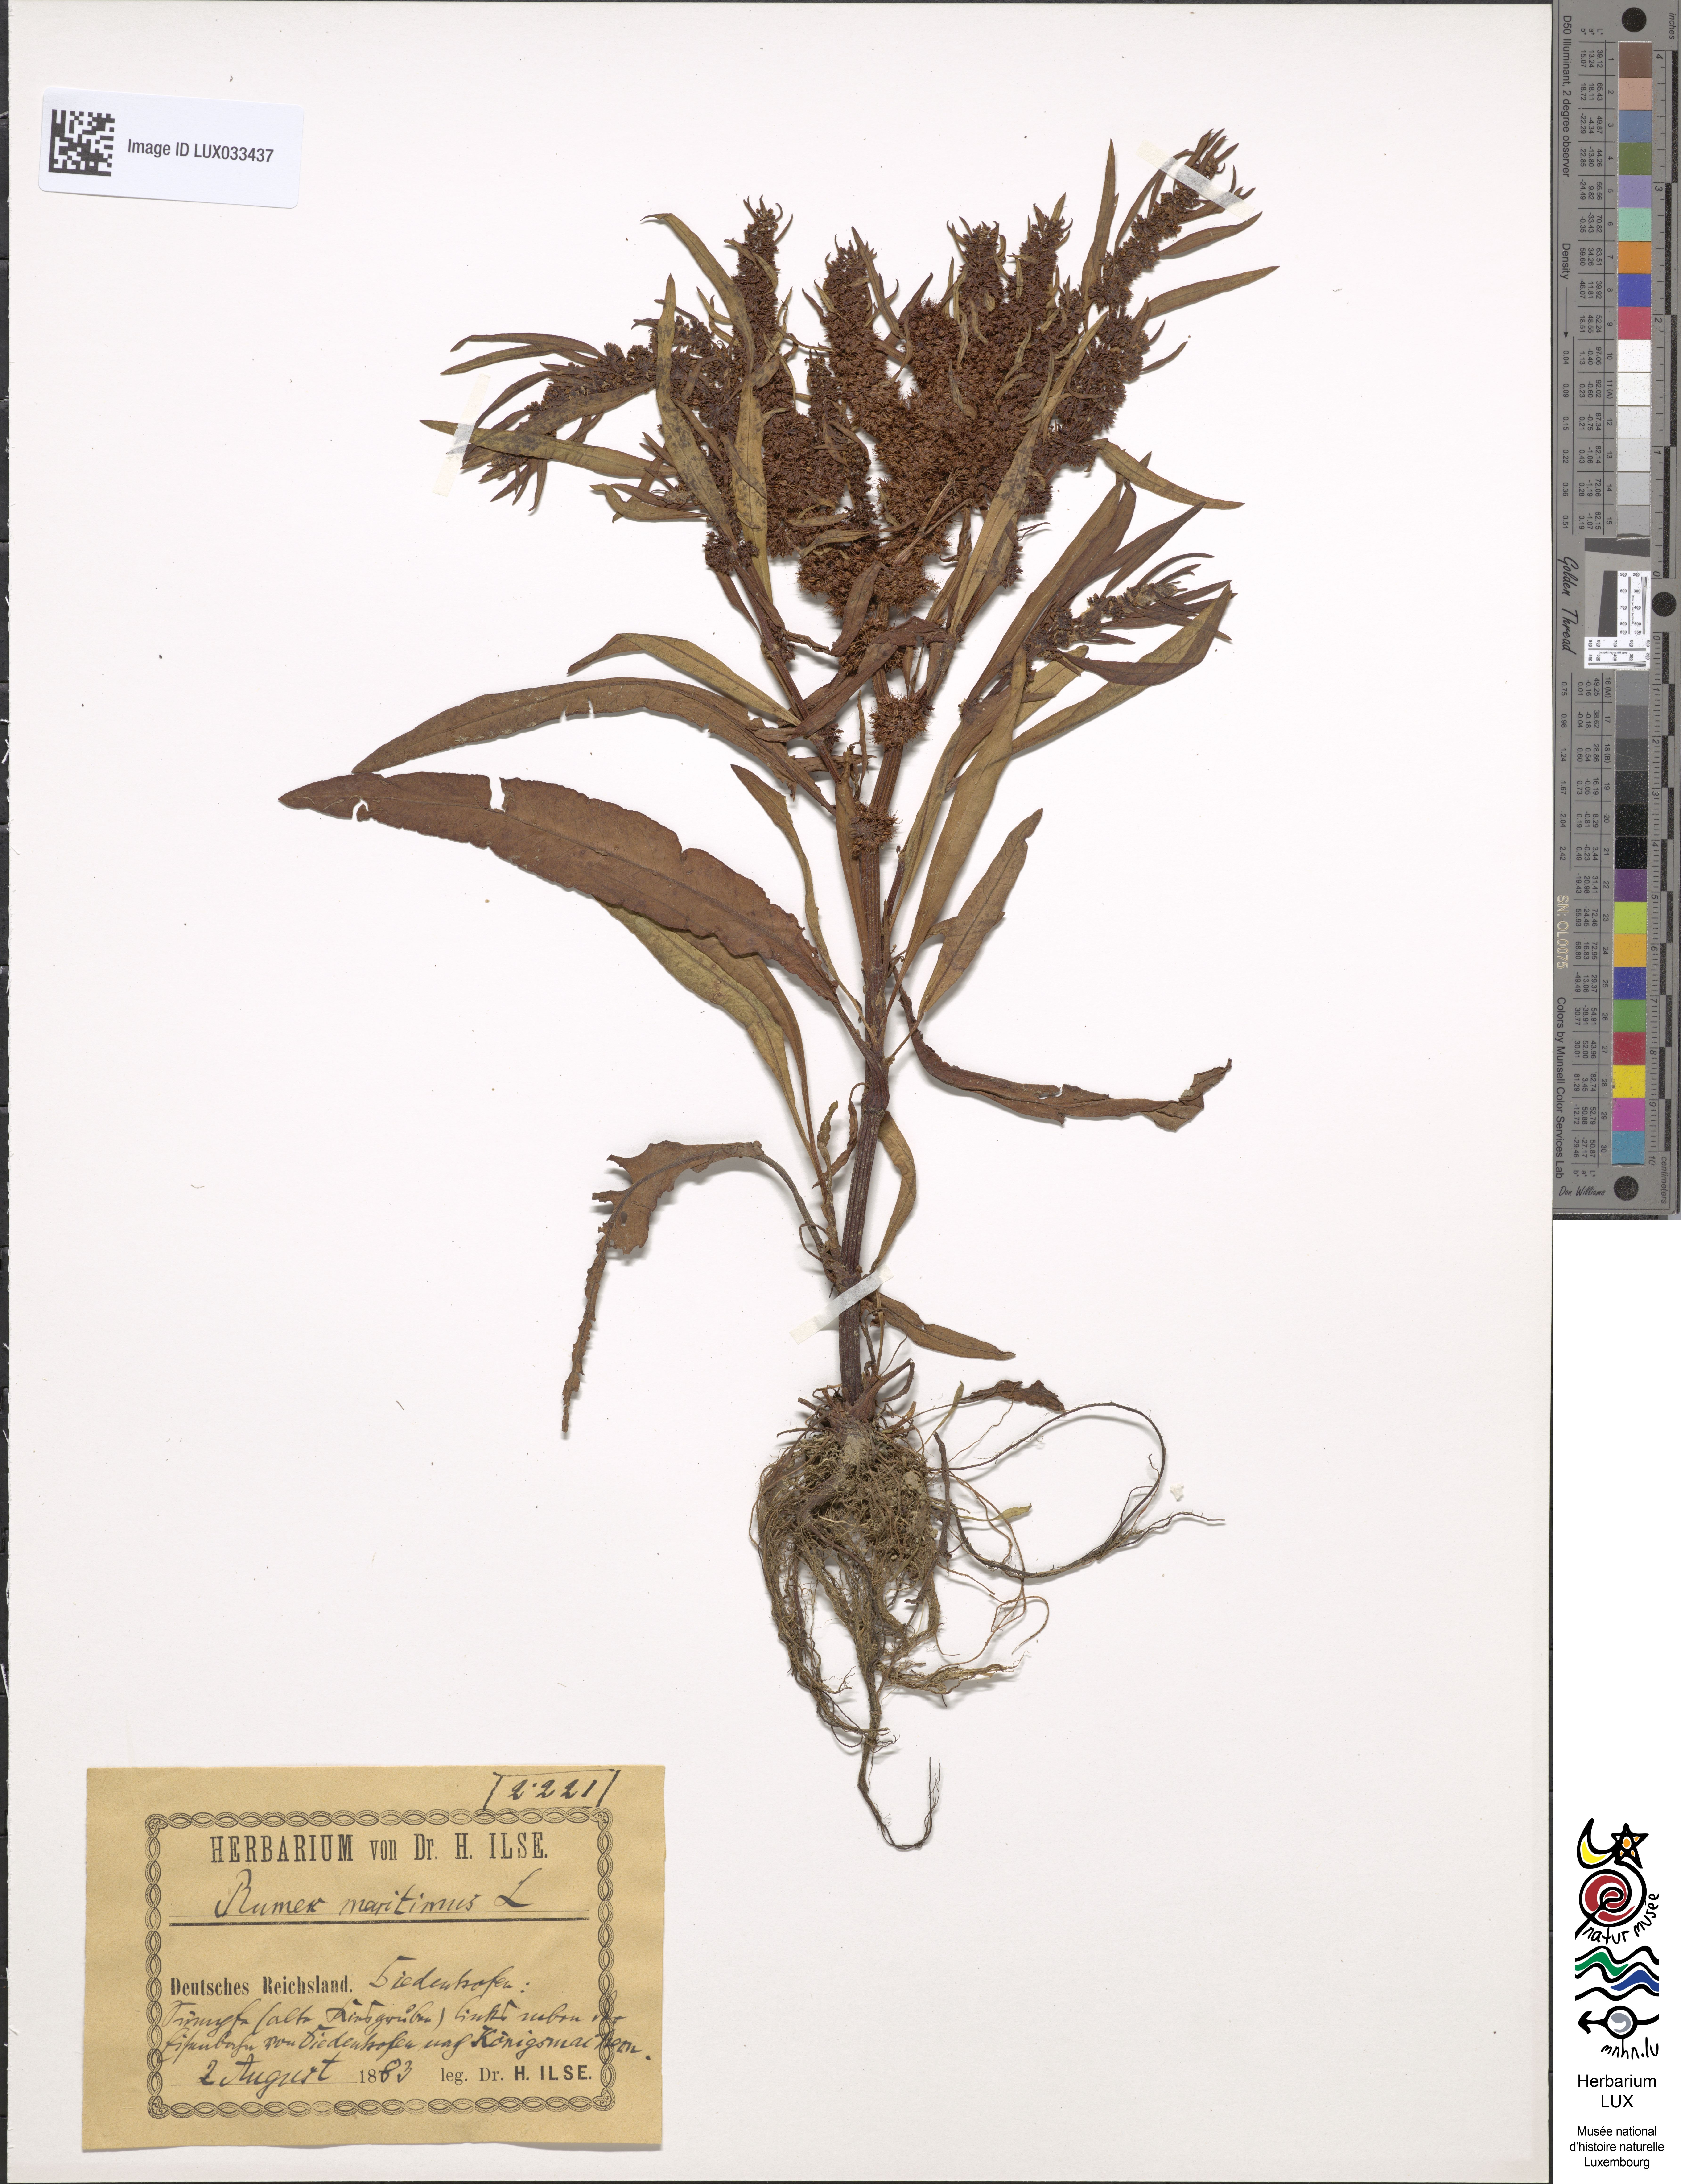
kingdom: Plantae
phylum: Tracheophyta
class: Magnoliopsida
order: Caryophyllales
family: Polygonaceae
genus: Rumex
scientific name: Rumex maritimus
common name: Golden dock
